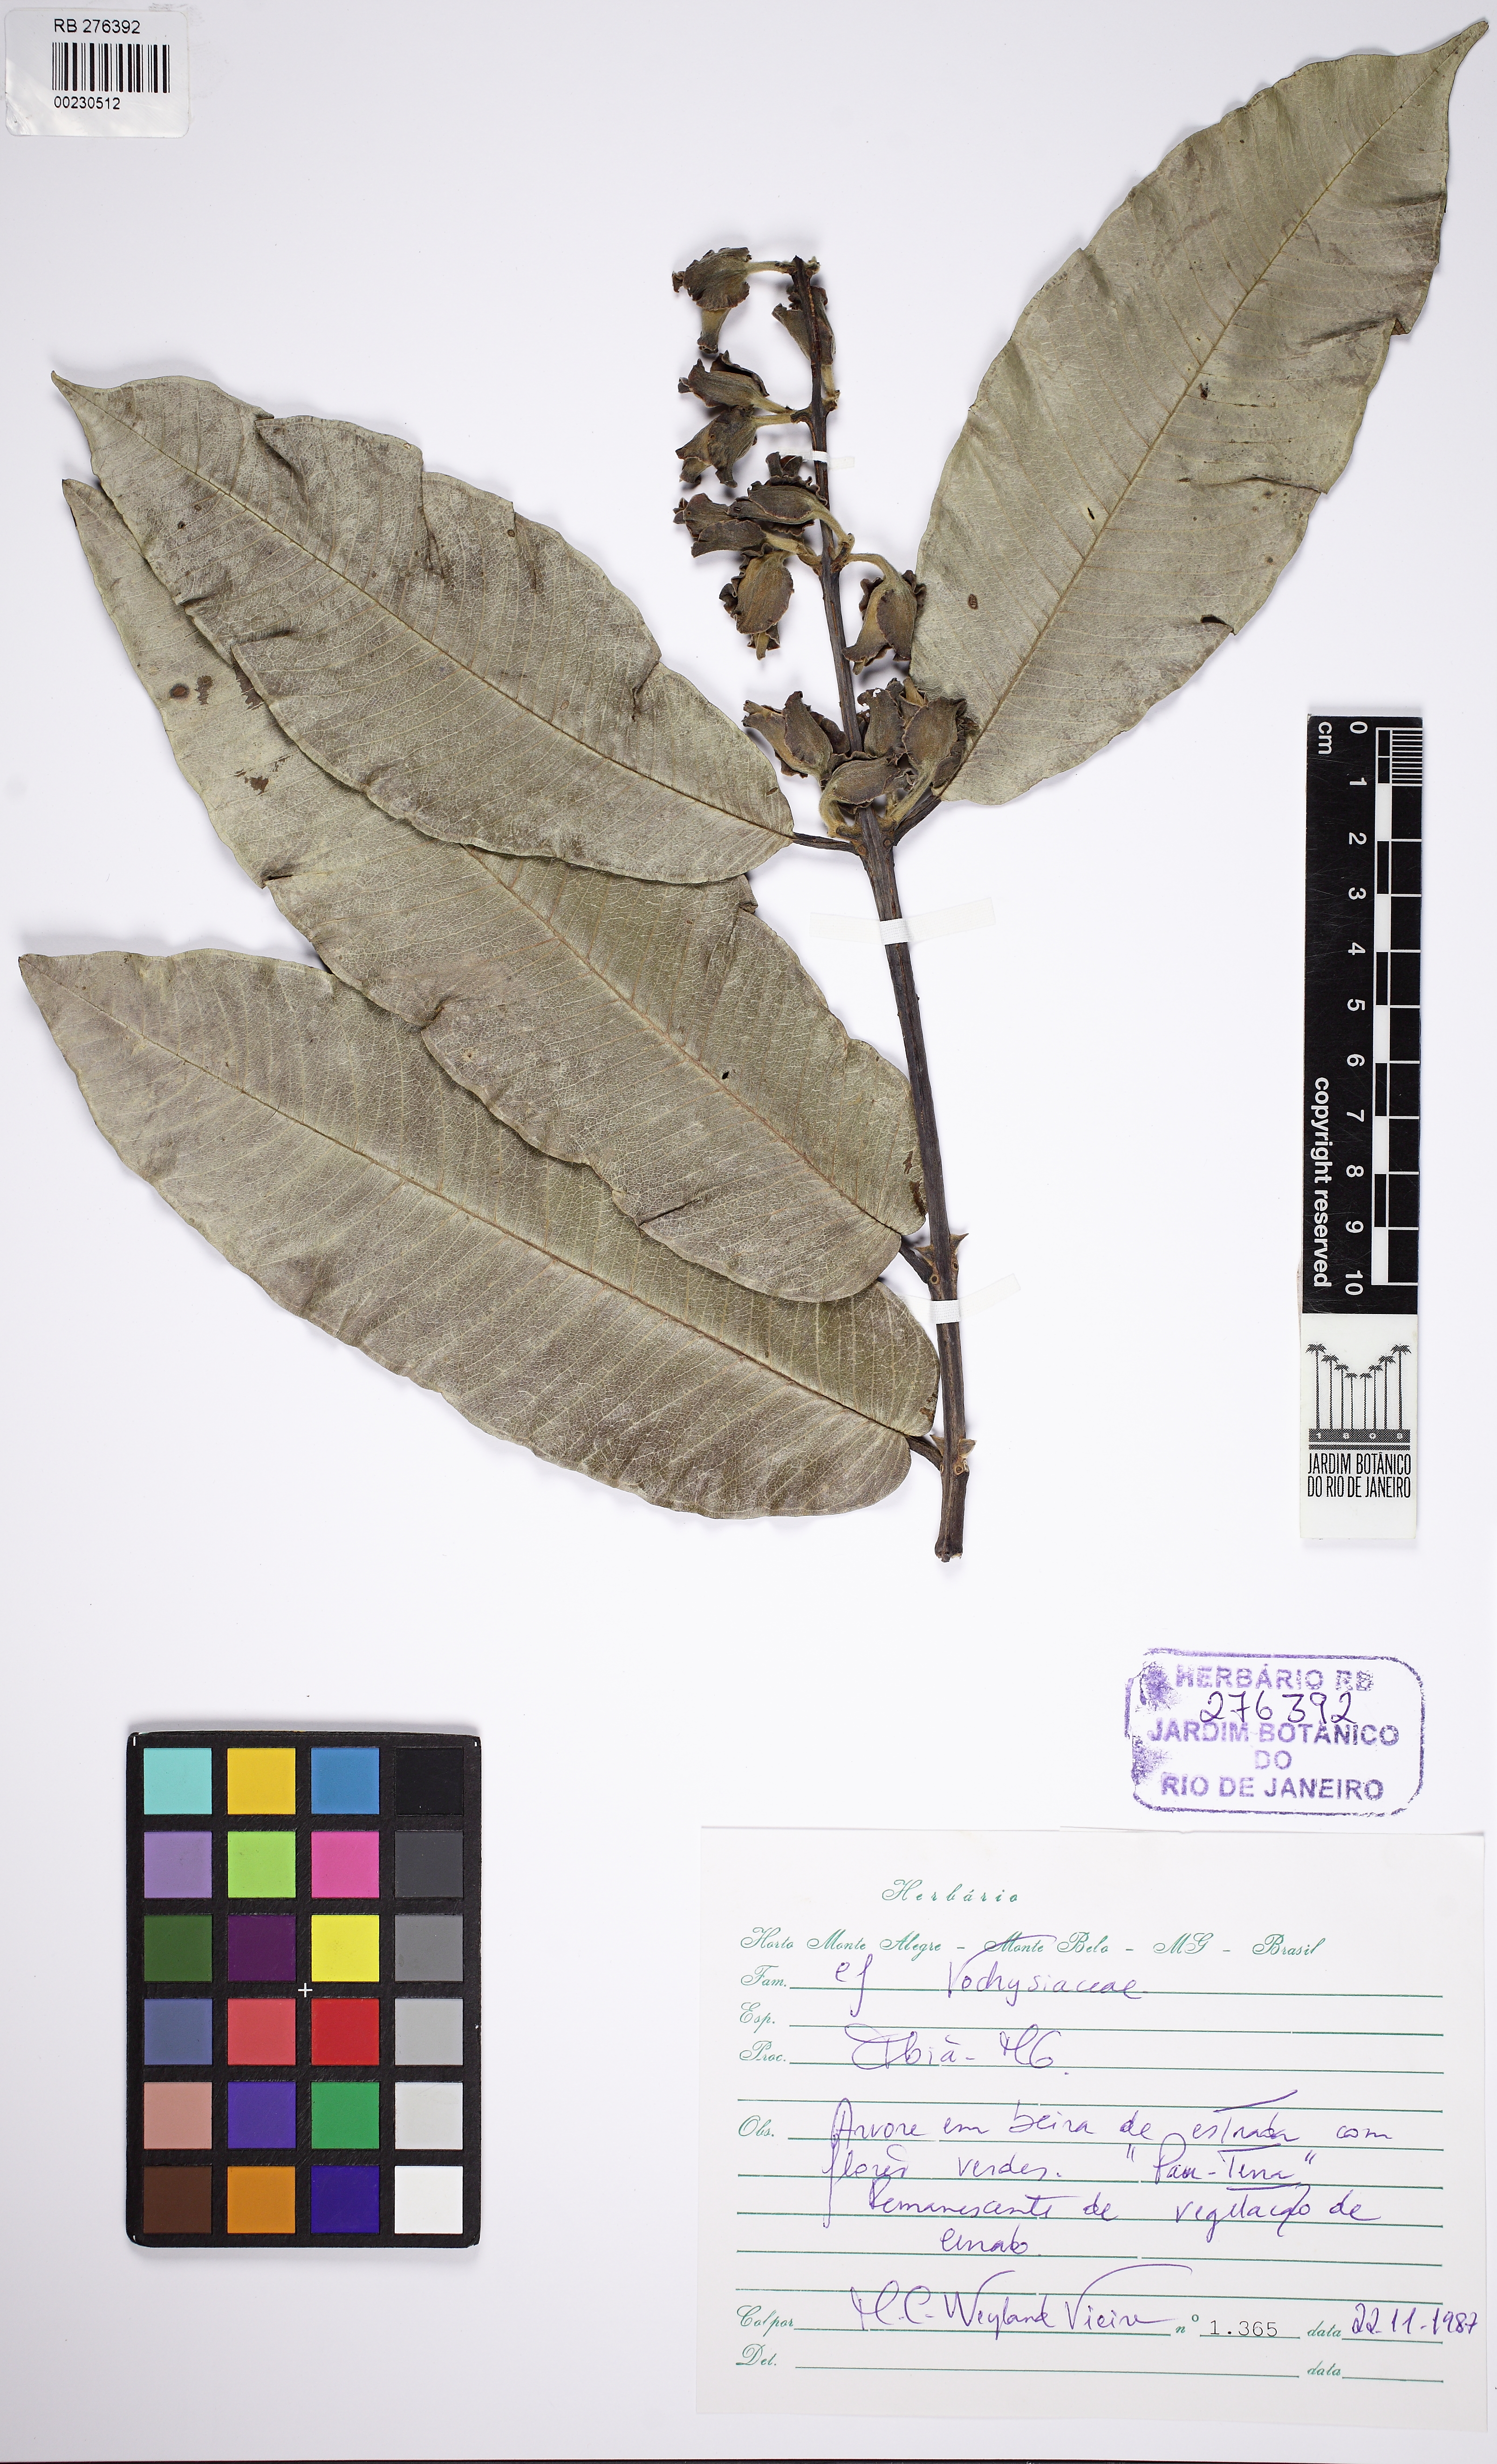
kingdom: Plantae
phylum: Tracheophyta
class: Magnoliopsida
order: Myrtales
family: Vochysiaceae
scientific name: Vochysiaceae
